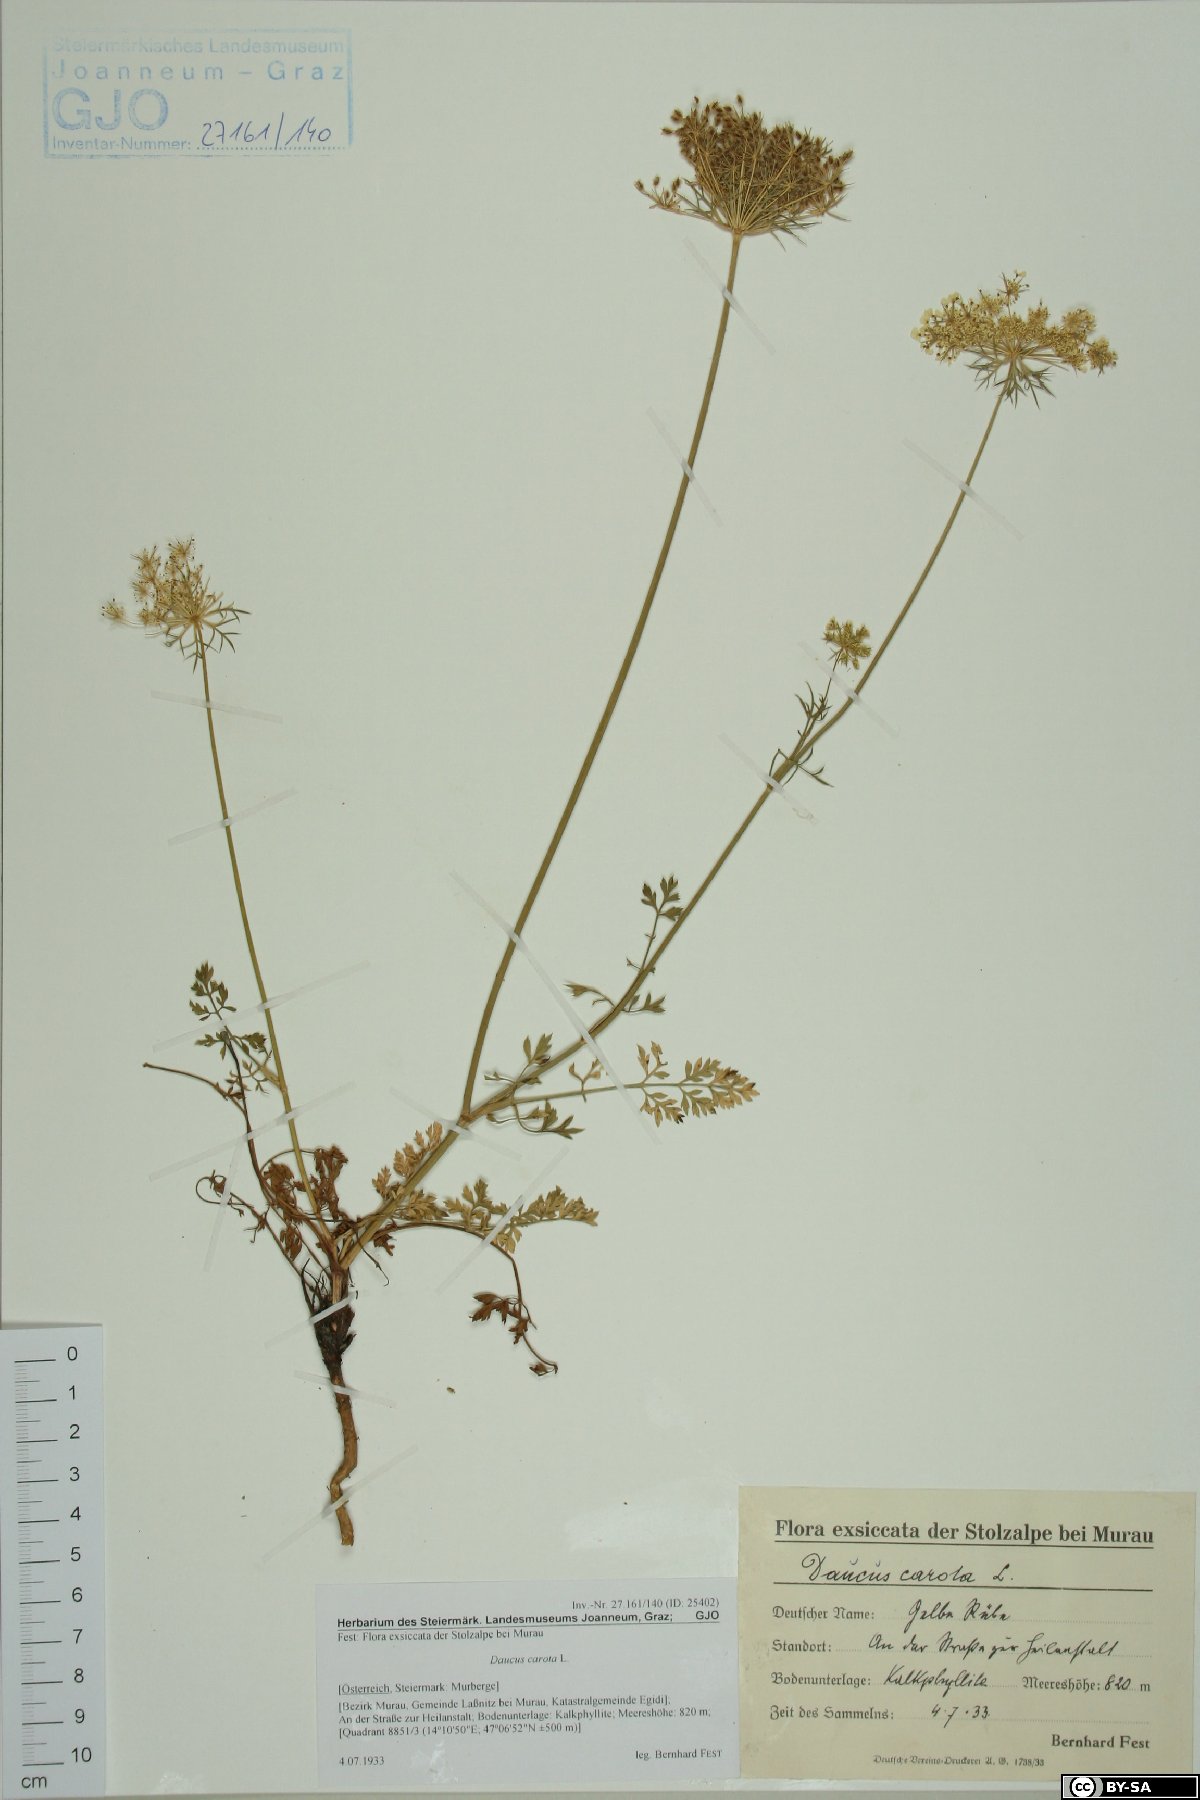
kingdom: Plantae
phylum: Tracheophyta
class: Magnoliopsida
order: Apiales
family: Apiaceae
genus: Daucus
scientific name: Daucus carota
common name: Wild carrot
